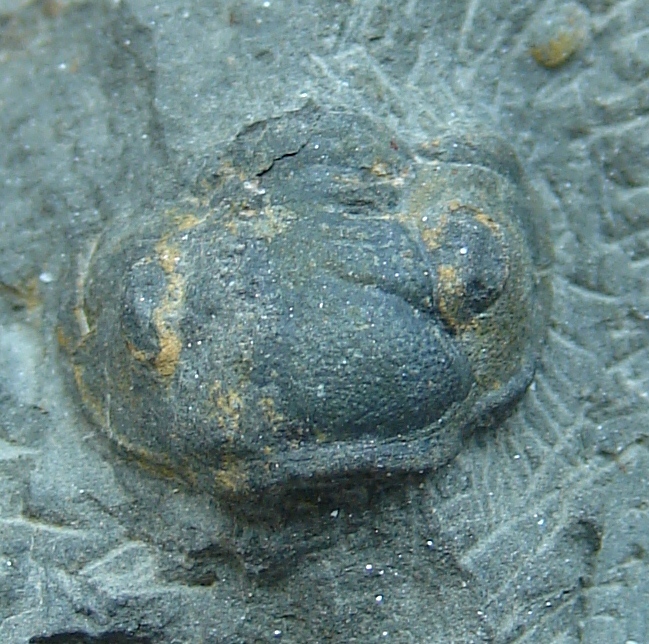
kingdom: Animalia
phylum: Arthropoda
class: Trilobita
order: Phacopida
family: Acastidae
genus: Acastoides
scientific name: Acastoides
